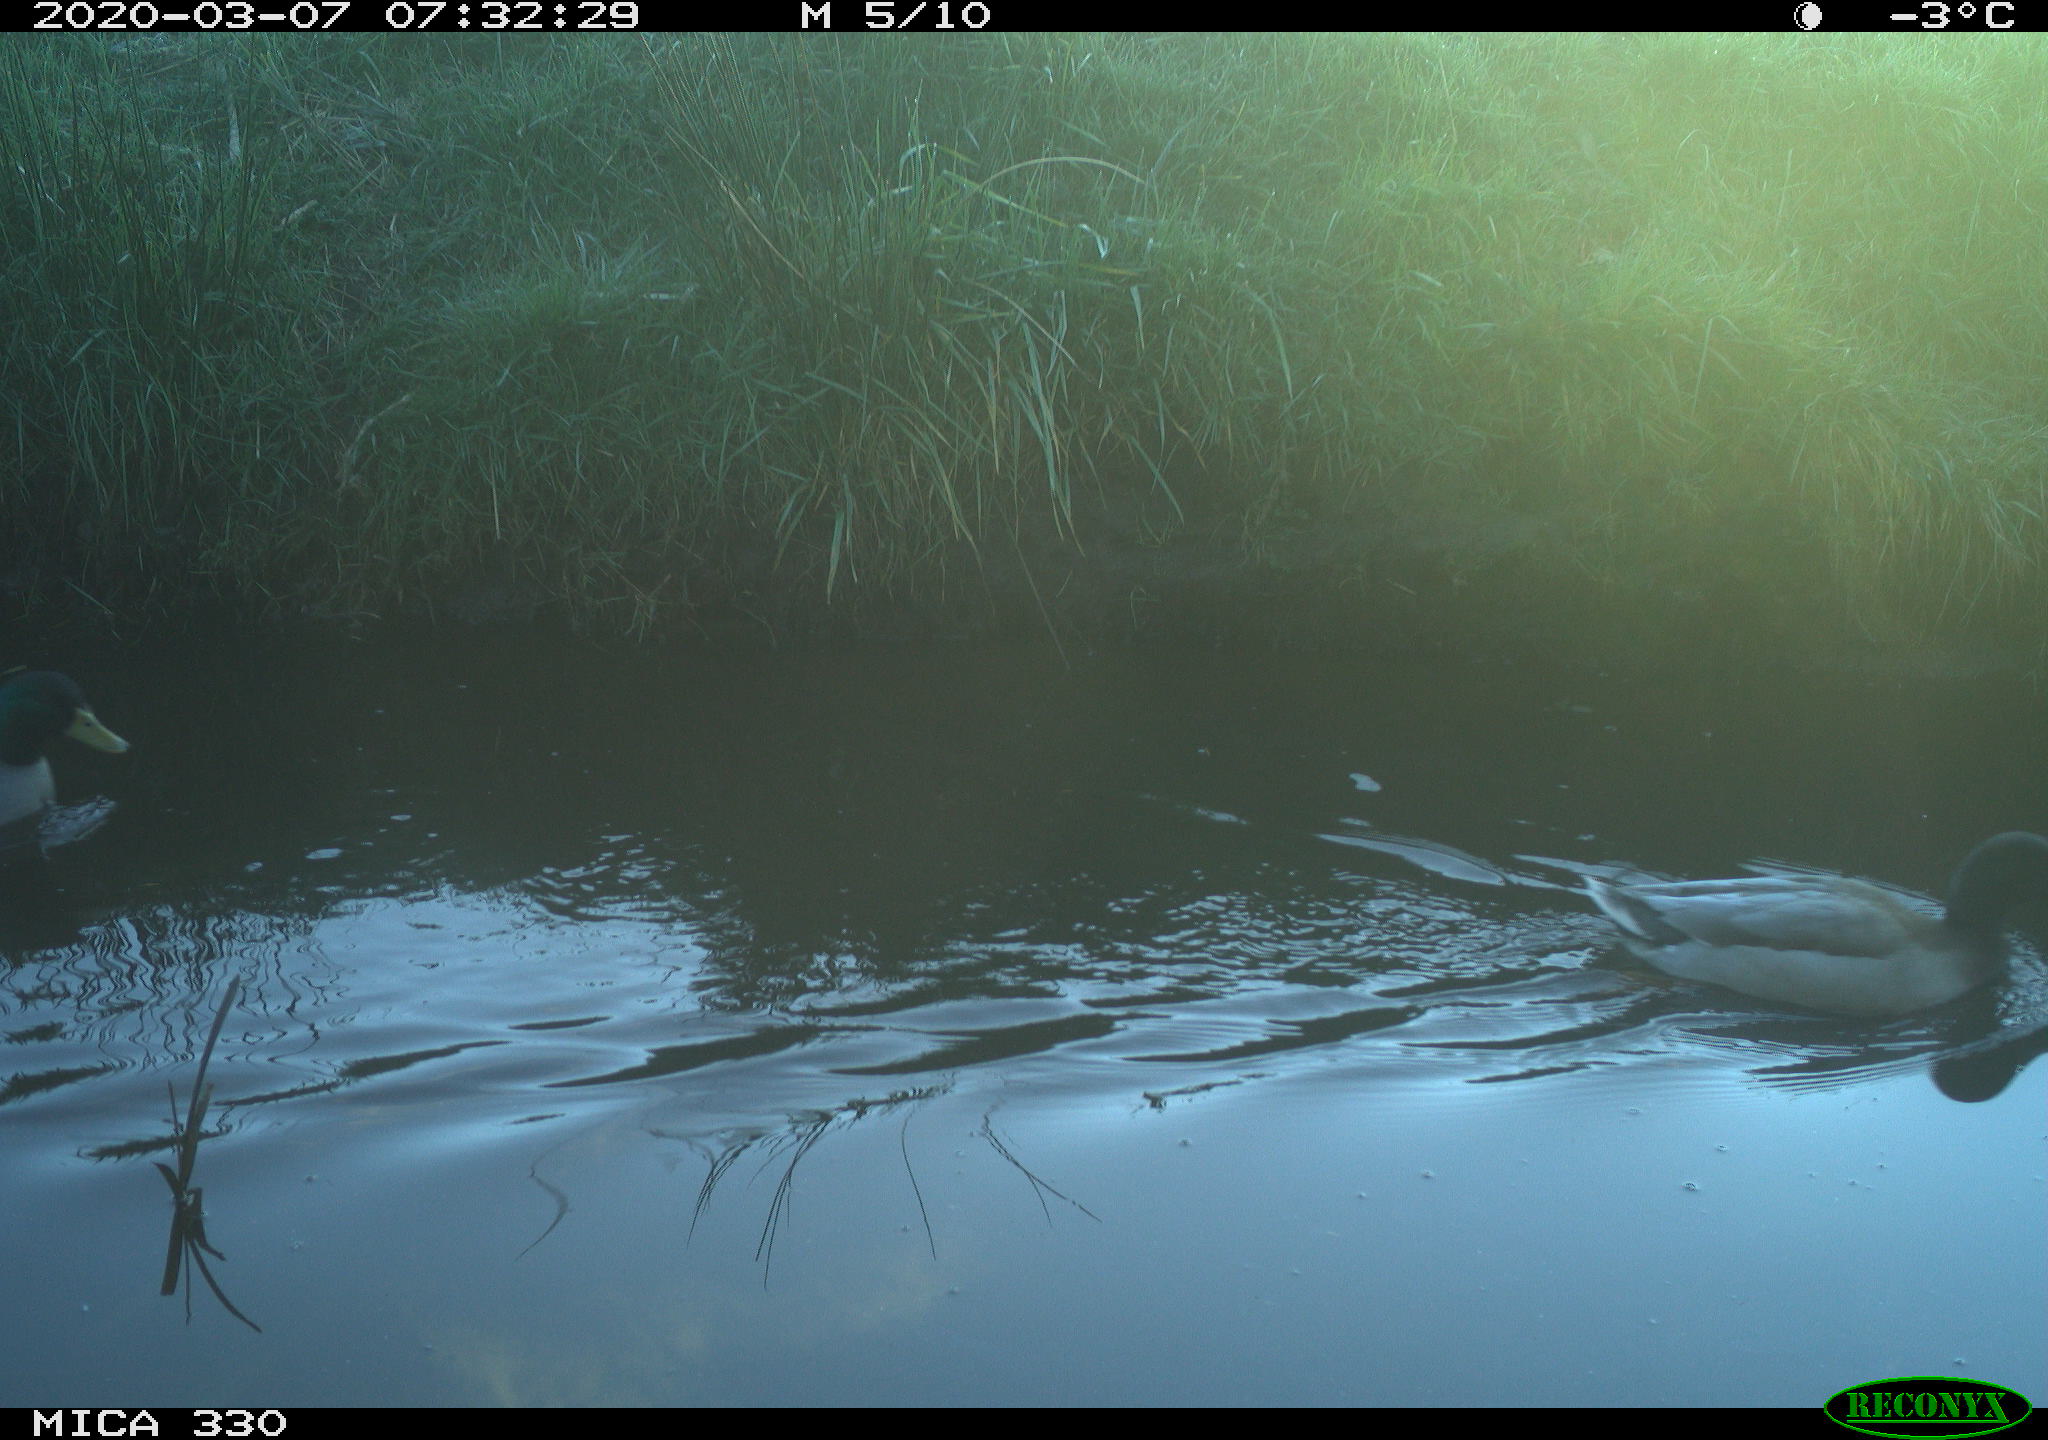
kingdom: Animalia
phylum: Chordata
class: Aves
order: Anseriformes
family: Anatidae
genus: Anas
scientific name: Anas platyrhynchos
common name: Mallard
